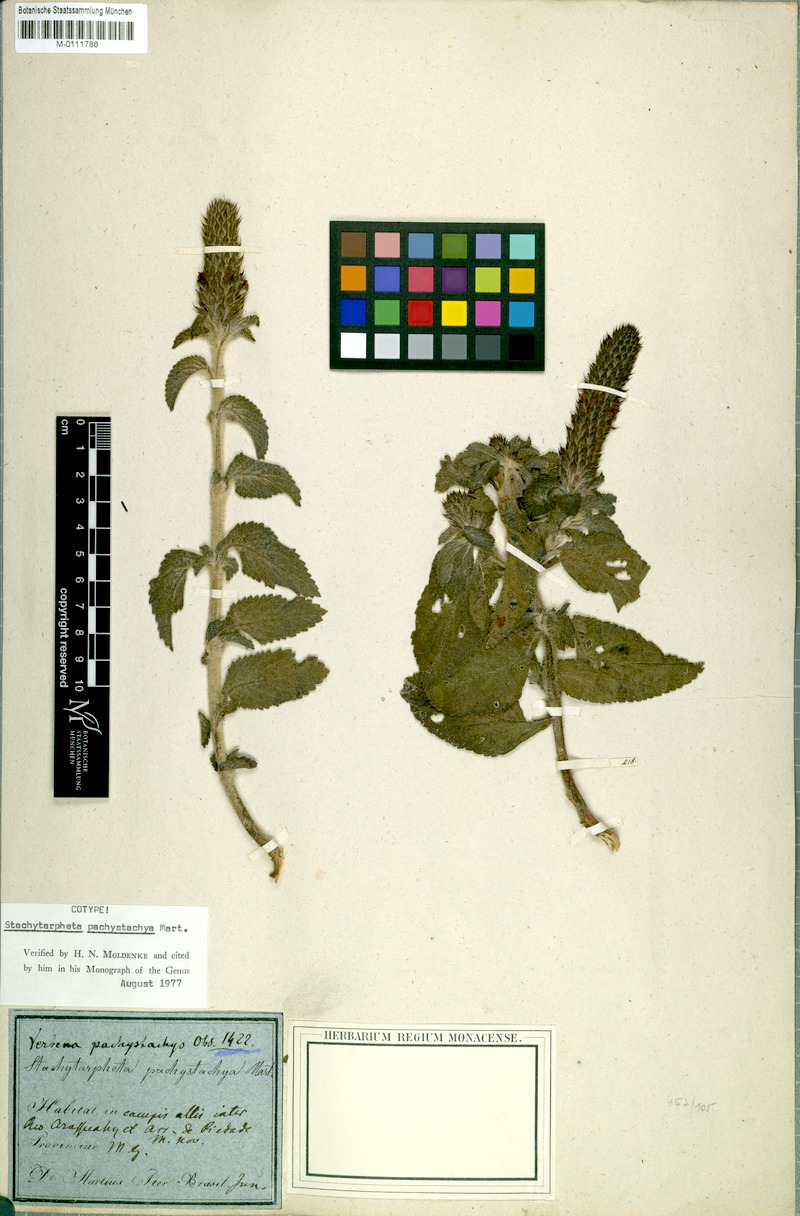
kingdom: Plantae
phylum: Tracheophyta
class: Magnoliopsida
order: Lamiales
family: Verbenaceae
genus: Stachytarpheta
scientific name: Stachytarpheta pachystachya
